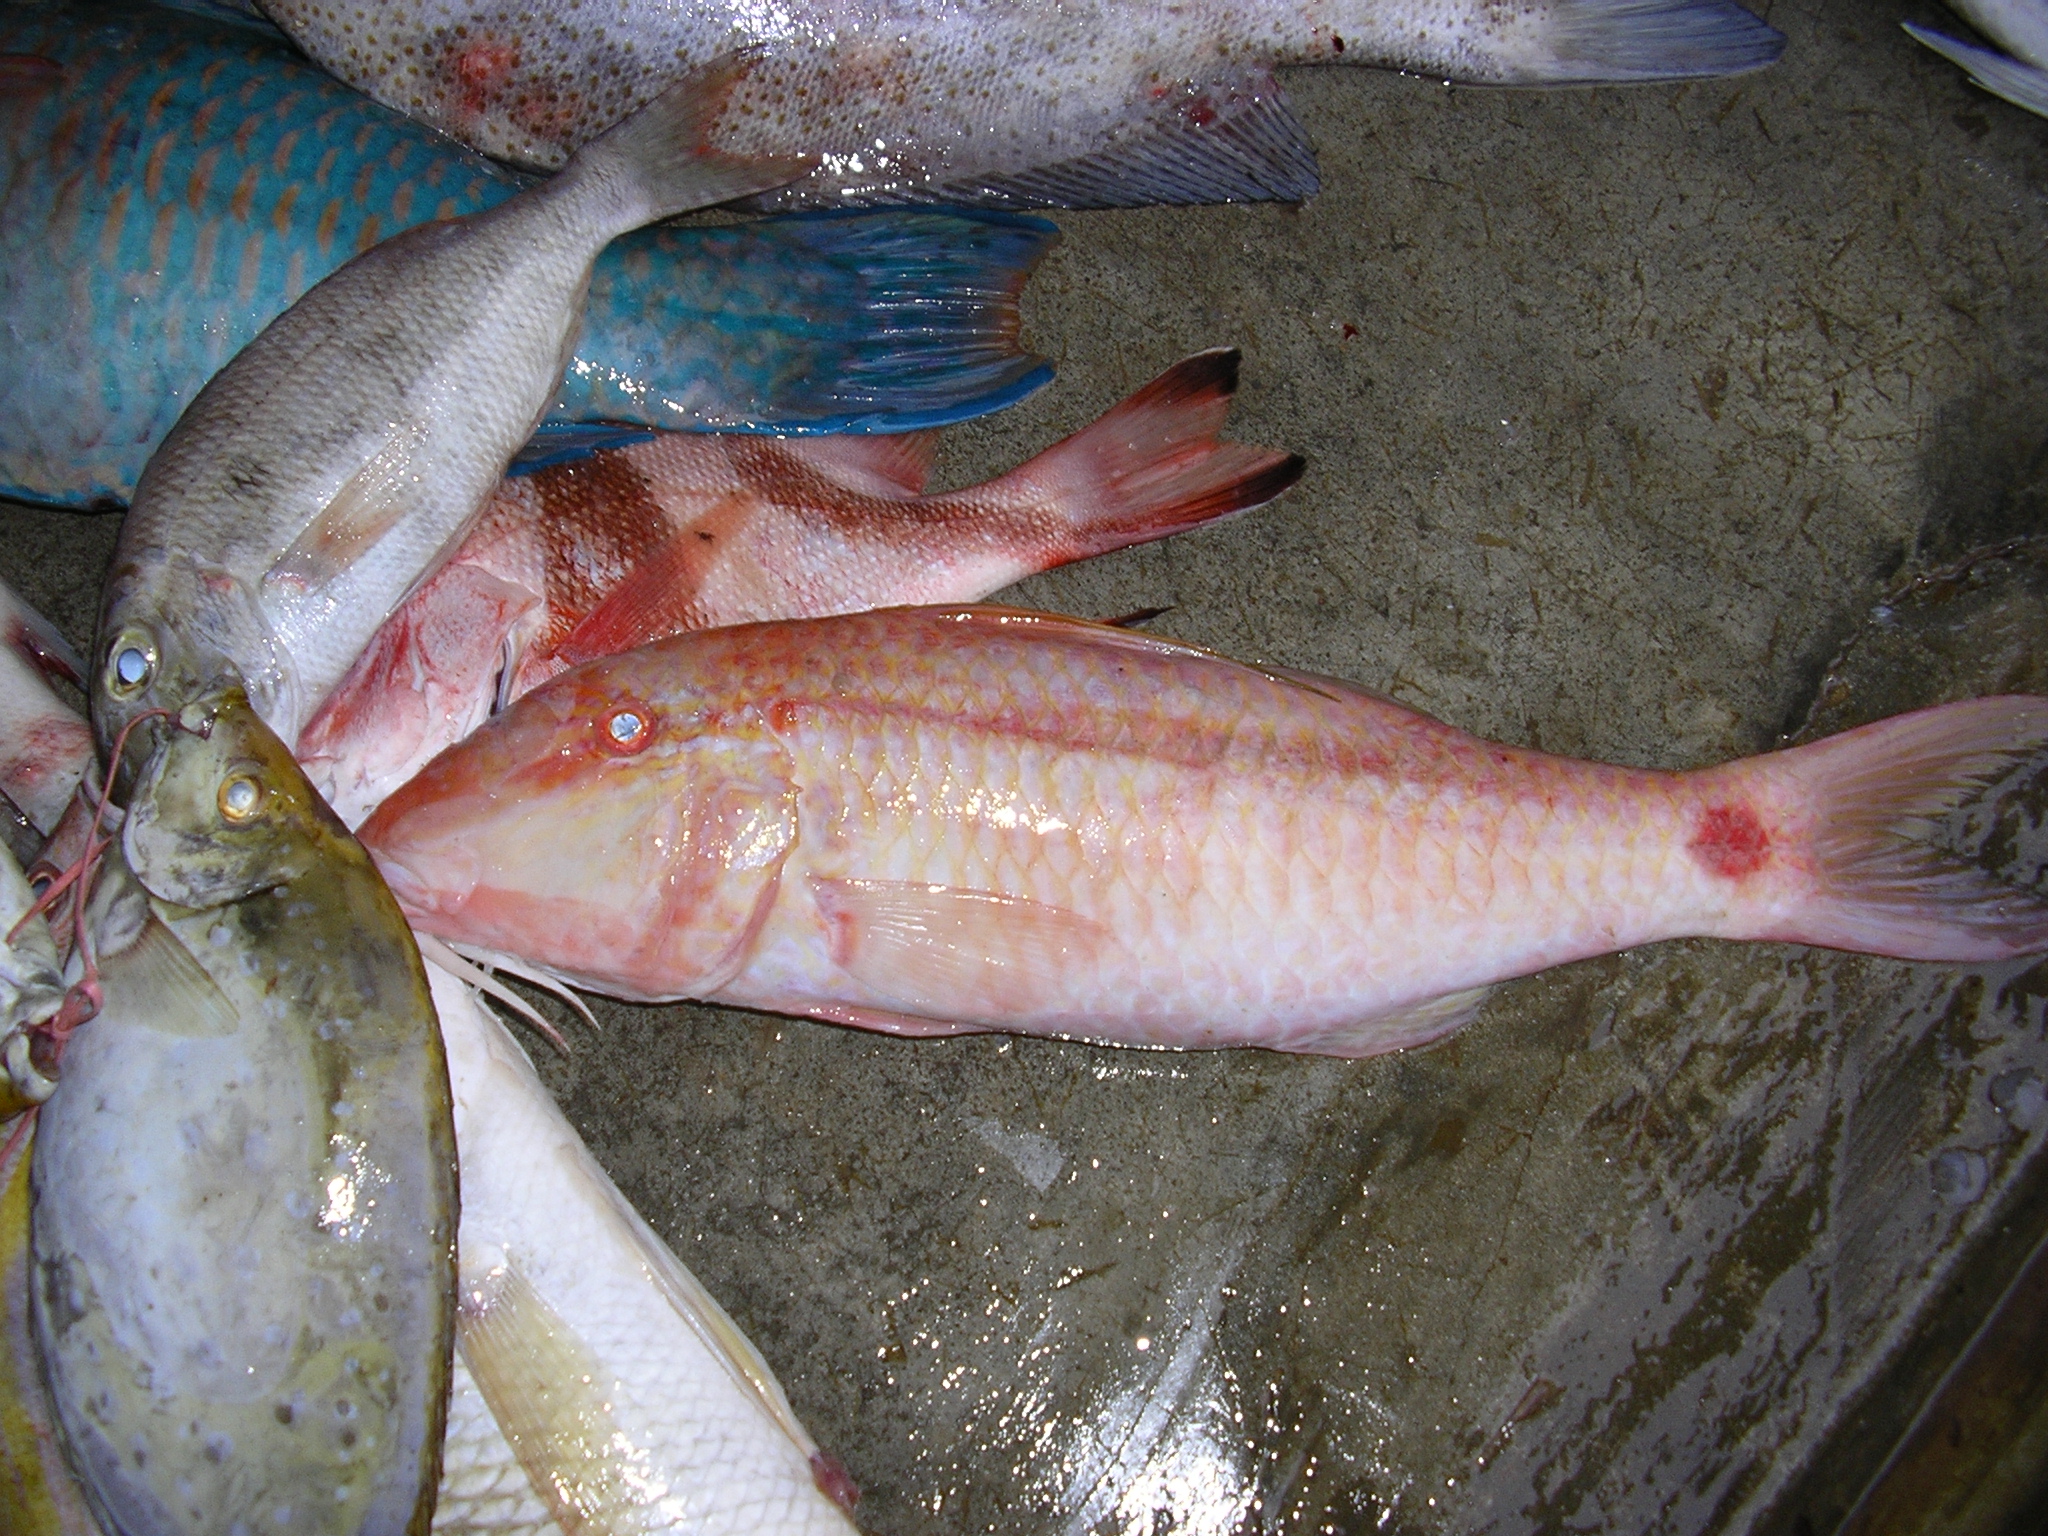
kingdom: Animalia
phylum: Chordata
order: Perciformes
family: Mullidae
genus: Parupeneus
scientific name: Parupeneus barberinus
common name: Dash-and-dot goatfish
